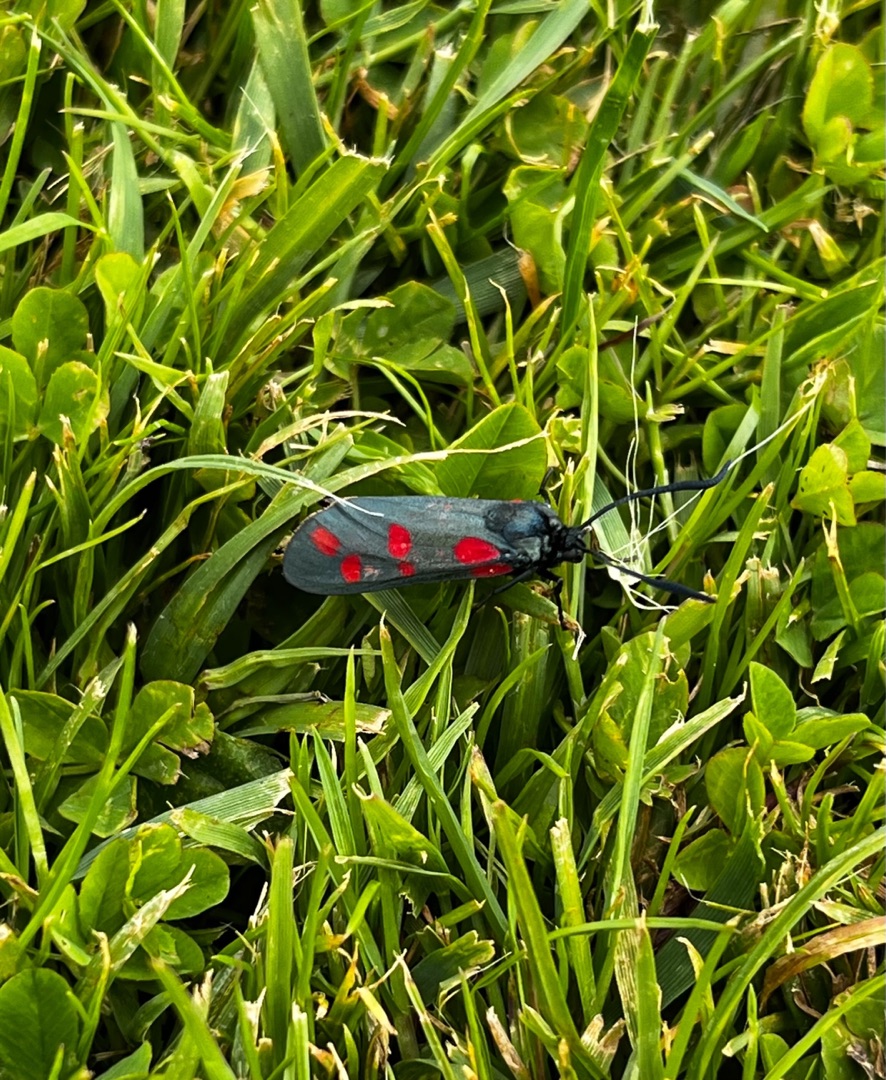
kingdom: Animalia
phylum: Arthropoda
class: Insecta
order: Lepidoptera
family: Zygaenidae
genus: Zygaena
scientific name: Zygaena filipendulae
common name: Seksplettet køllesværmer
